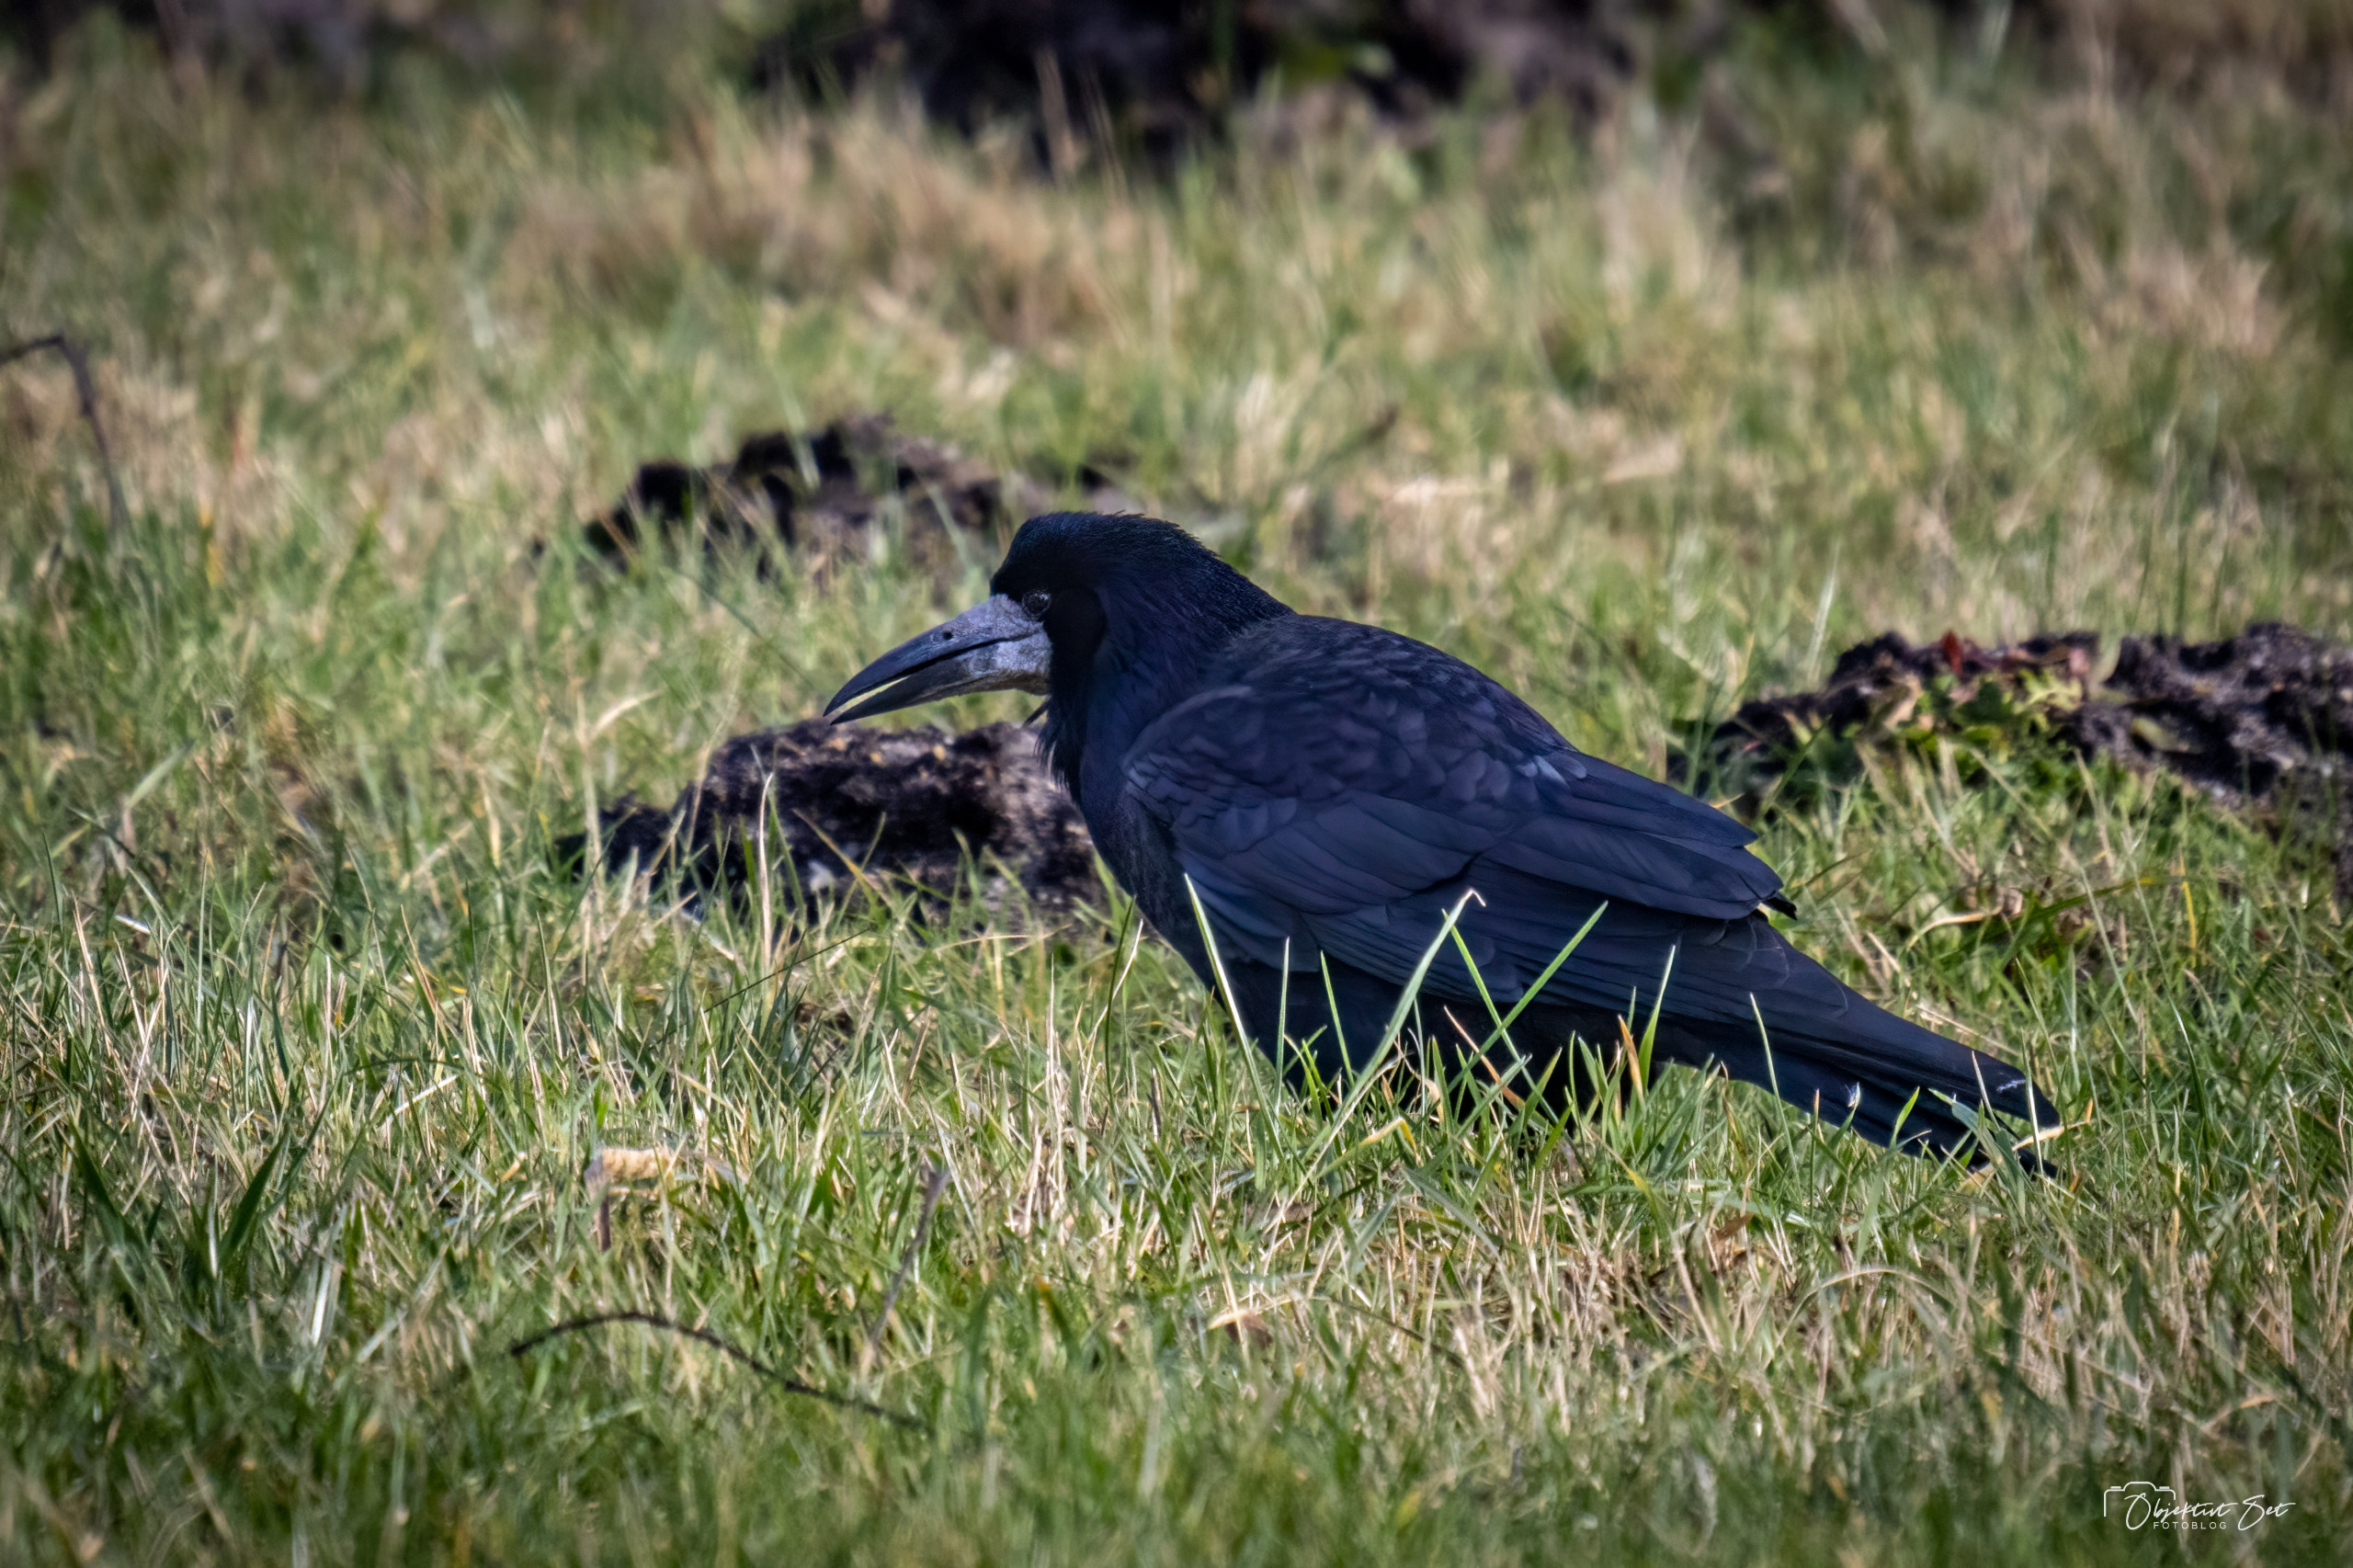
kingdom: Animalia
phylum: Chordata
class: Aves
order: Passeriformes
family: Corvidae
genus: Corvus
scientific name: Corvus frugilegus
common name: Råge
